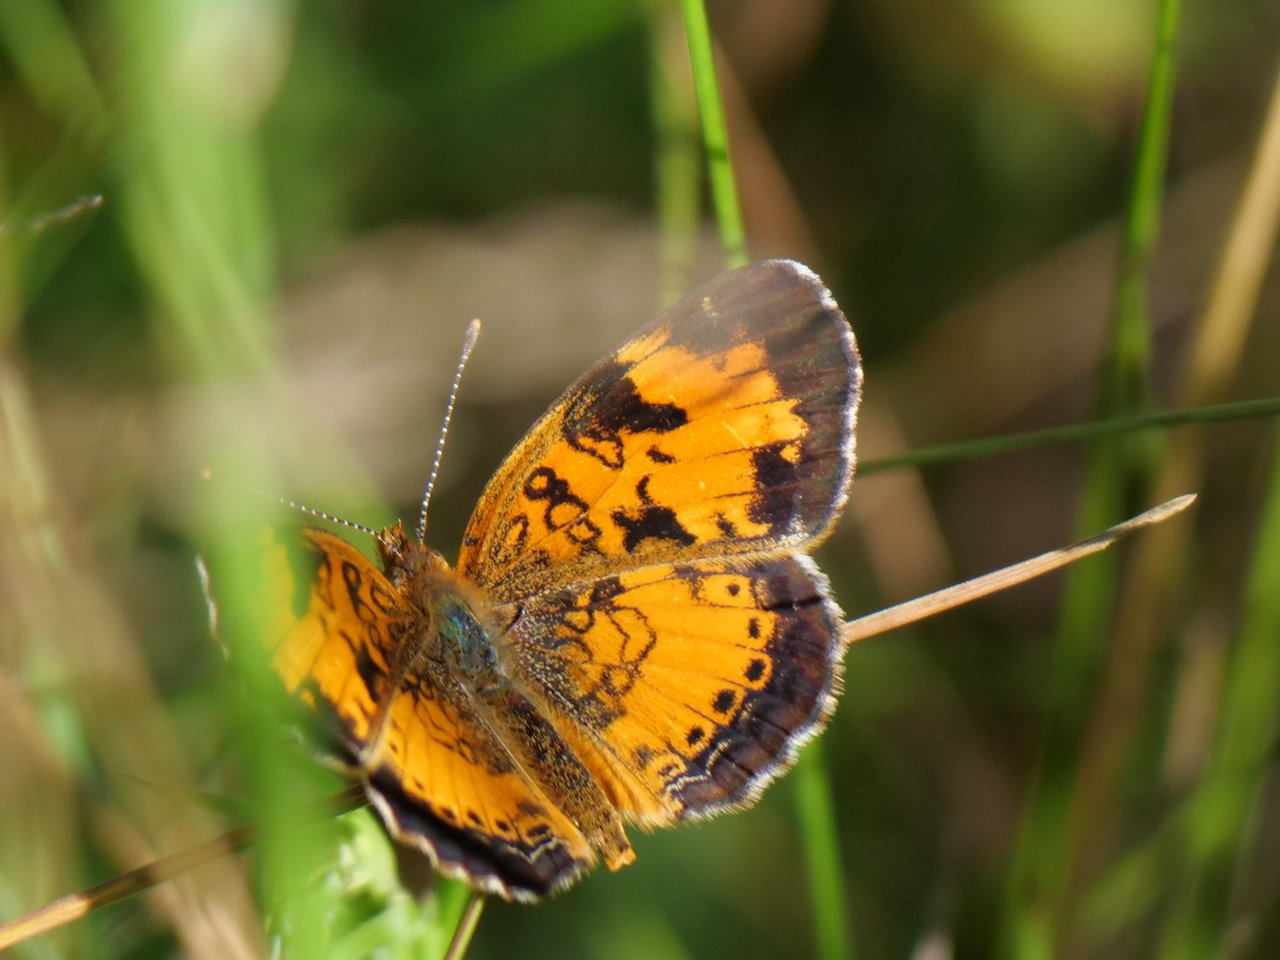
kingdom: Animalia
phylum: Arthropoda
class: Insecta
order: Lepidoptera
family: Nymphalidae
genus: Phyciodes
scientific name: Phyciodes tharos
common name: Northern Crescent
